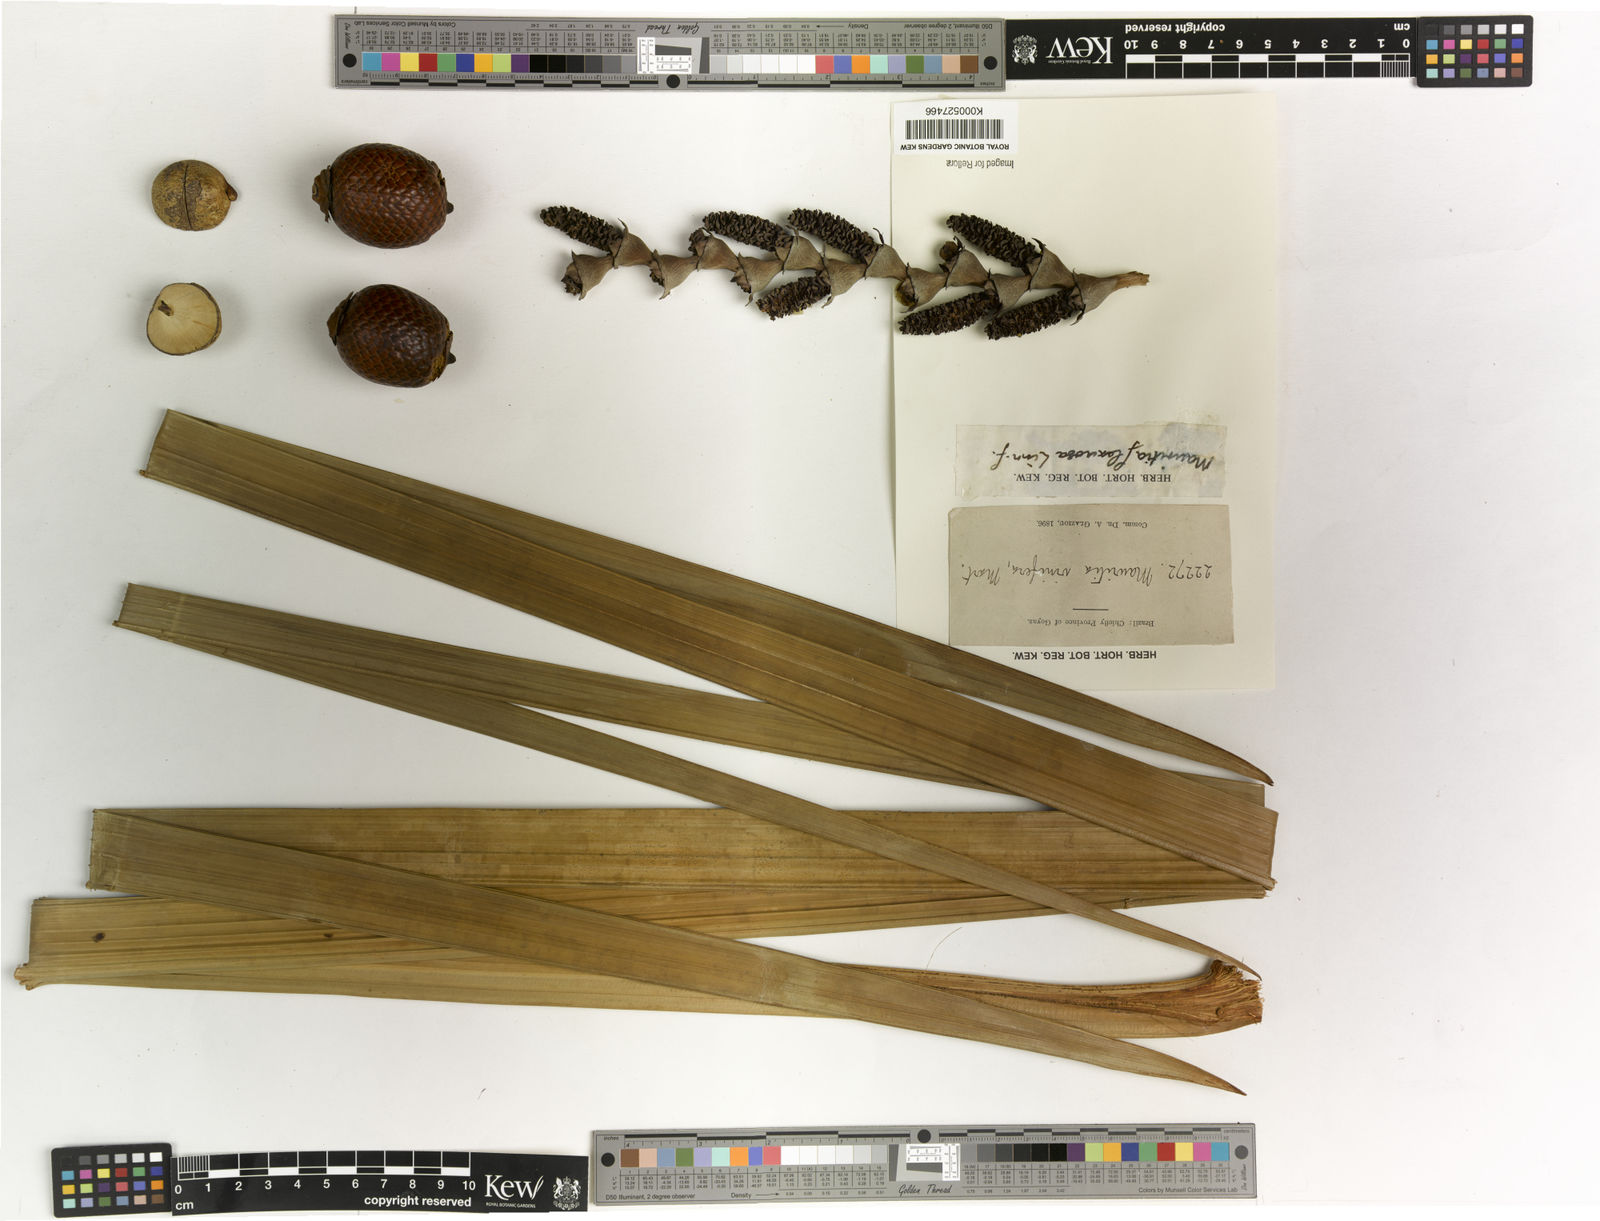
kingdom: Plantae
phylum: Tracheophyta
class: Liliopsida
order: Arecales
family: Arecaceae
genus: Mauritia
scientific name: Mauritia flexuosa
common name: Tree-of-life
